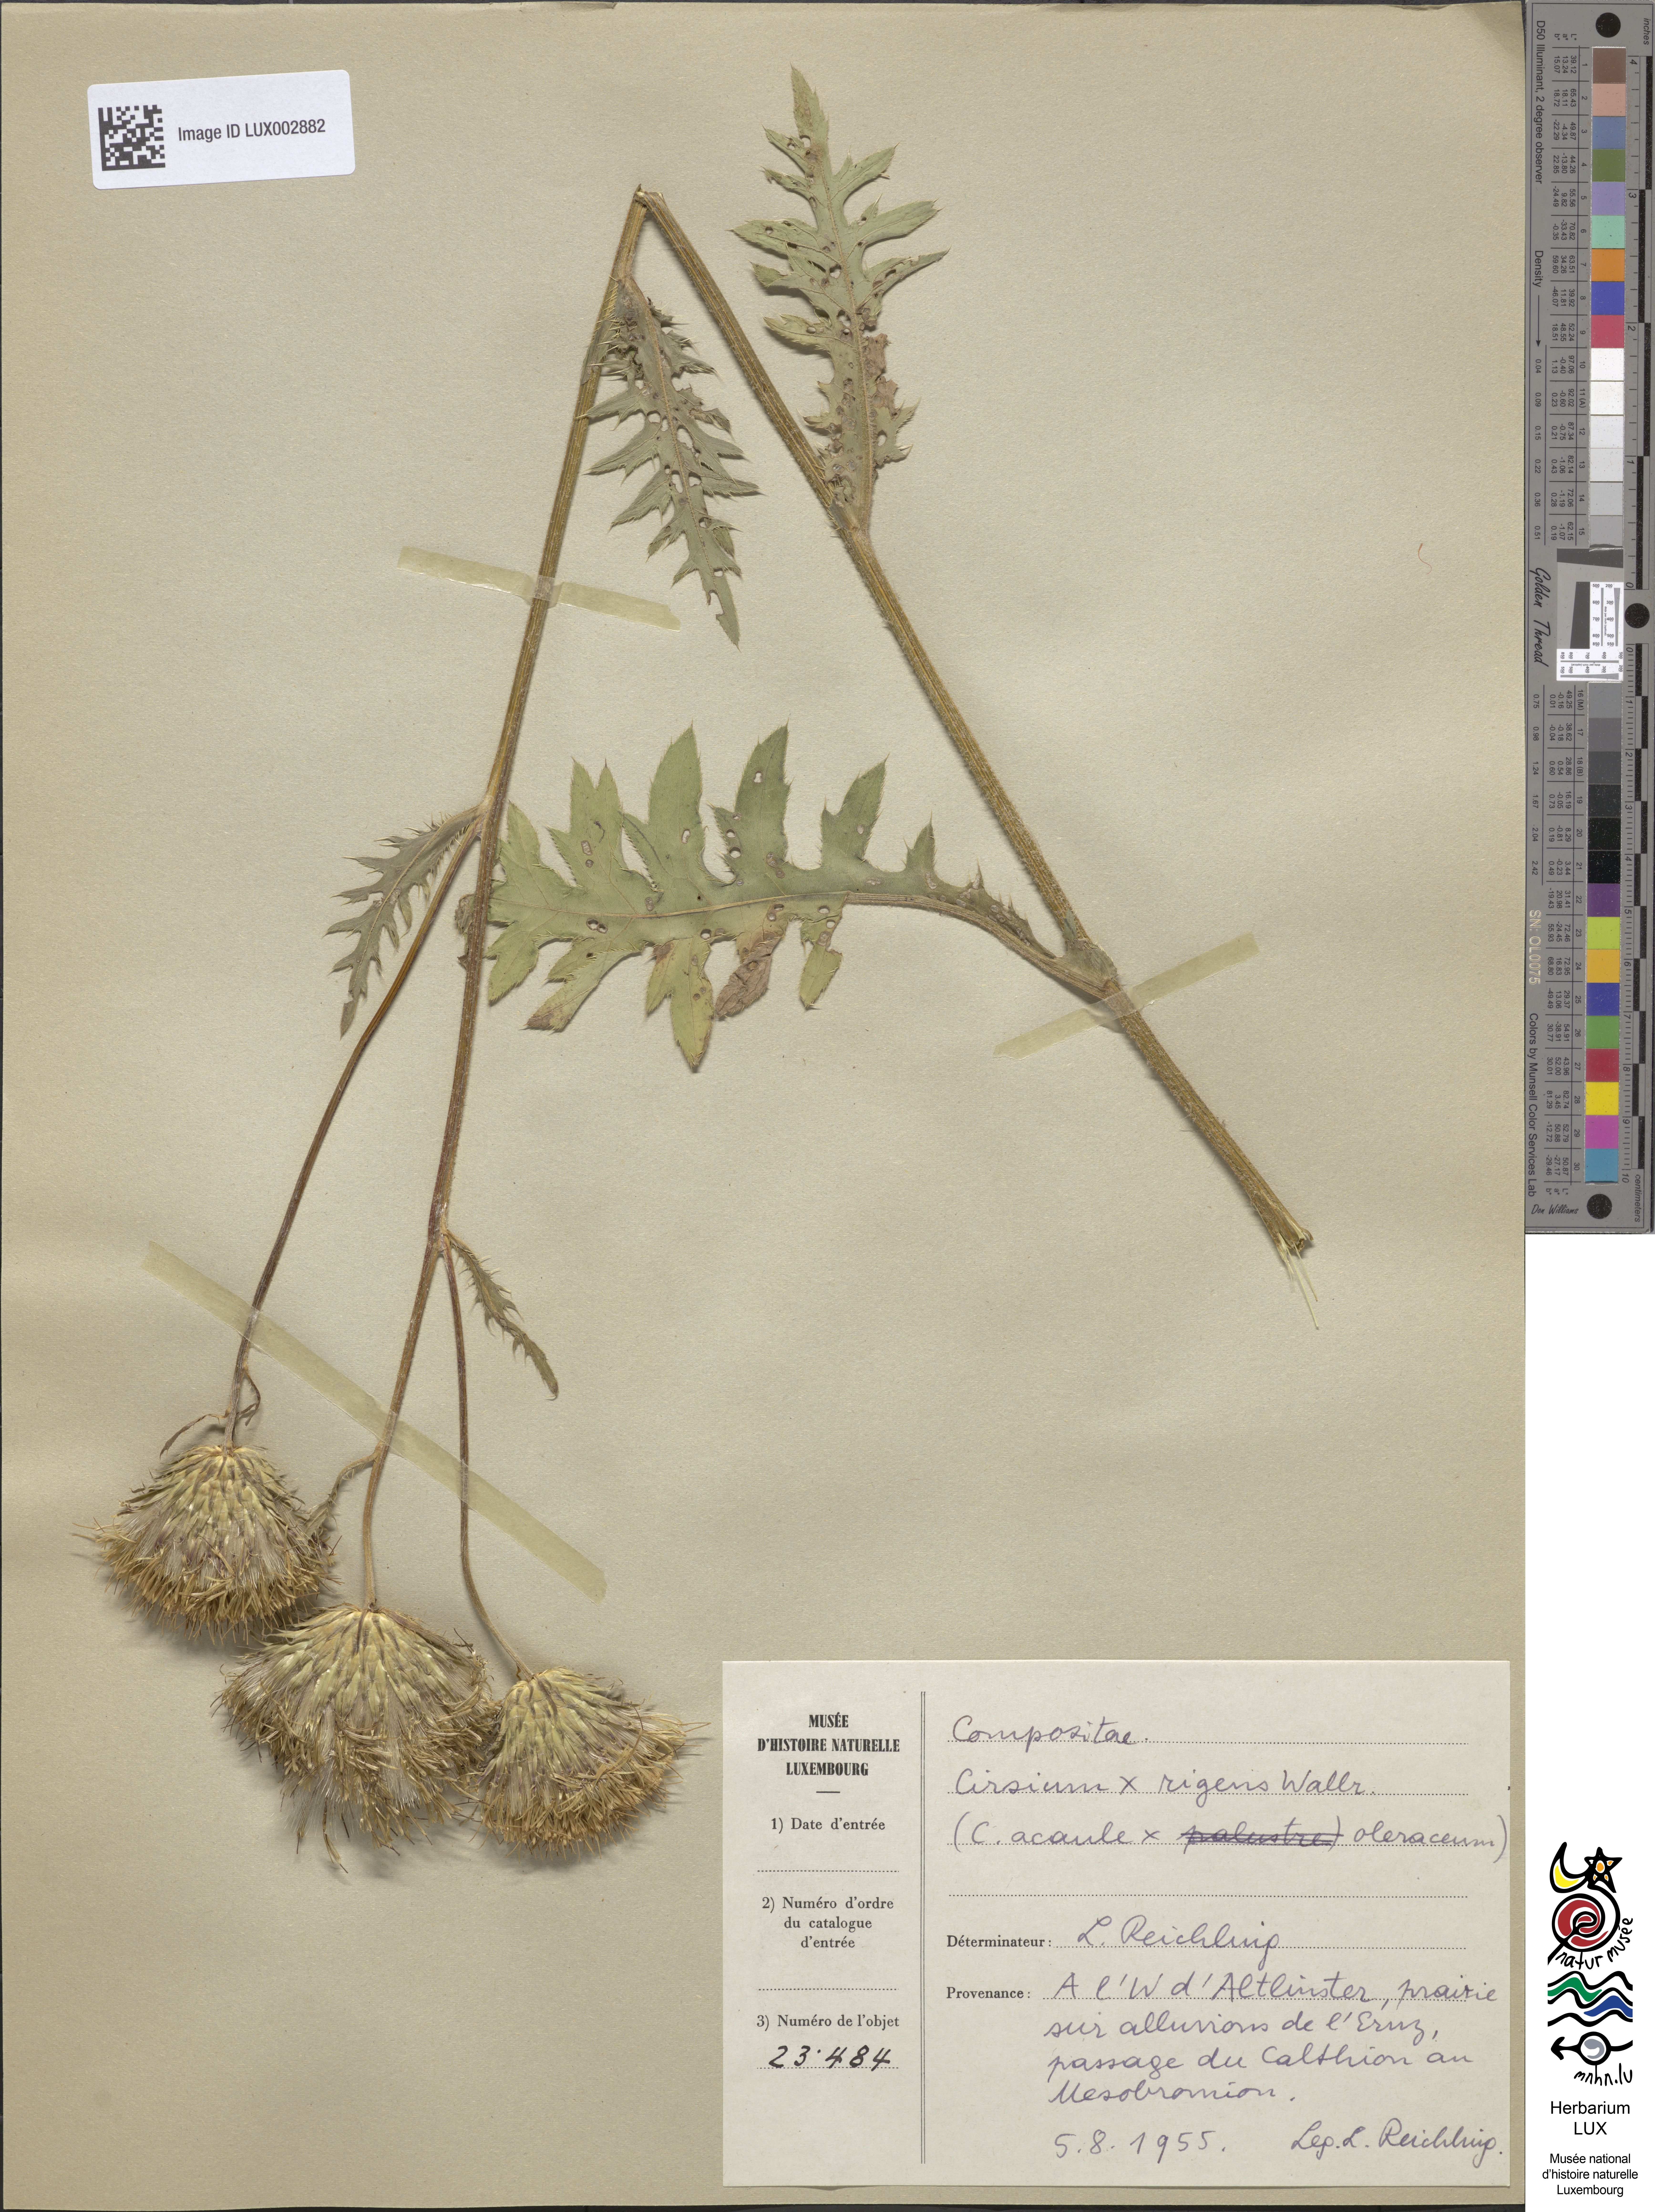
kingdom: Plantae
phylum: Tracheophyta
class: Magnoliopsida
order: Asterales
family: Asteraceae
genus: Cirsium
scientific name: Cirsium rigens
